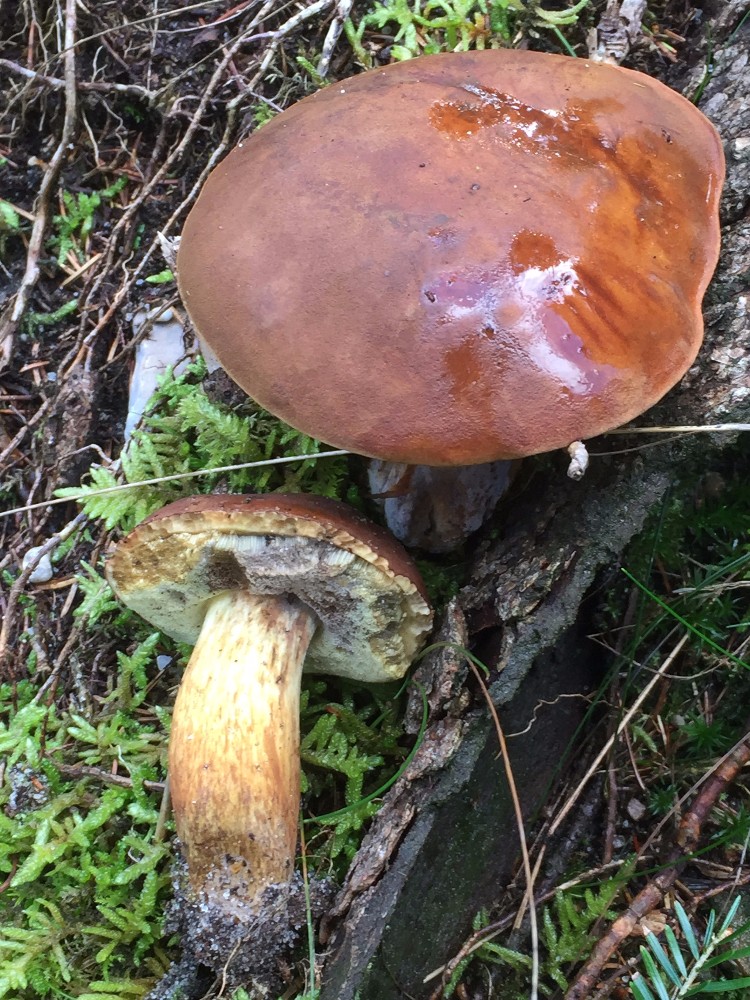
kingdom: Fungi
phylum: Basidiomycota
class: Agaricomycetes
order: Boletales
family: Boletaceae
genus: Imleria
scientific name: Imleria badia
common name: brunstokket rørhat
